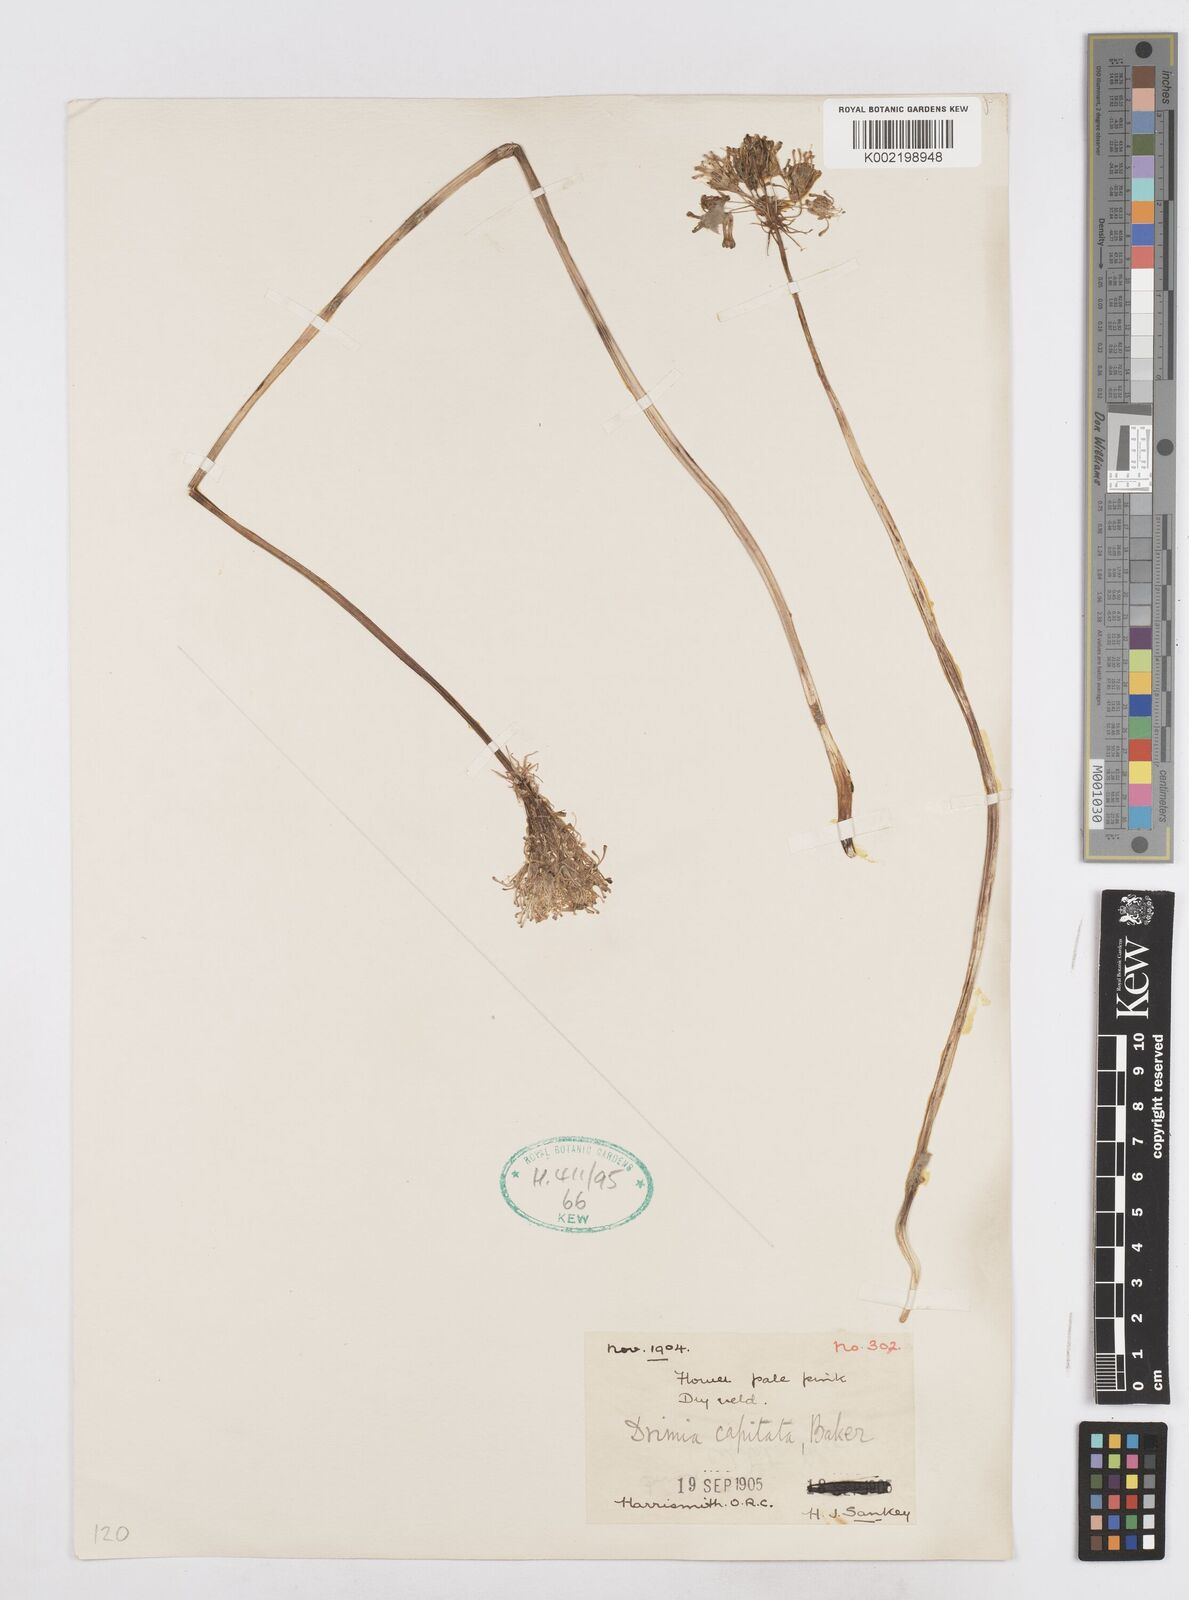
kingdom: Plantae
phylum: Tracheophyta
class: Liliopsida
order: Asparagales
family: Asparagaceae
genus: Drimia
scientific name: Drimia sphaerocephala
